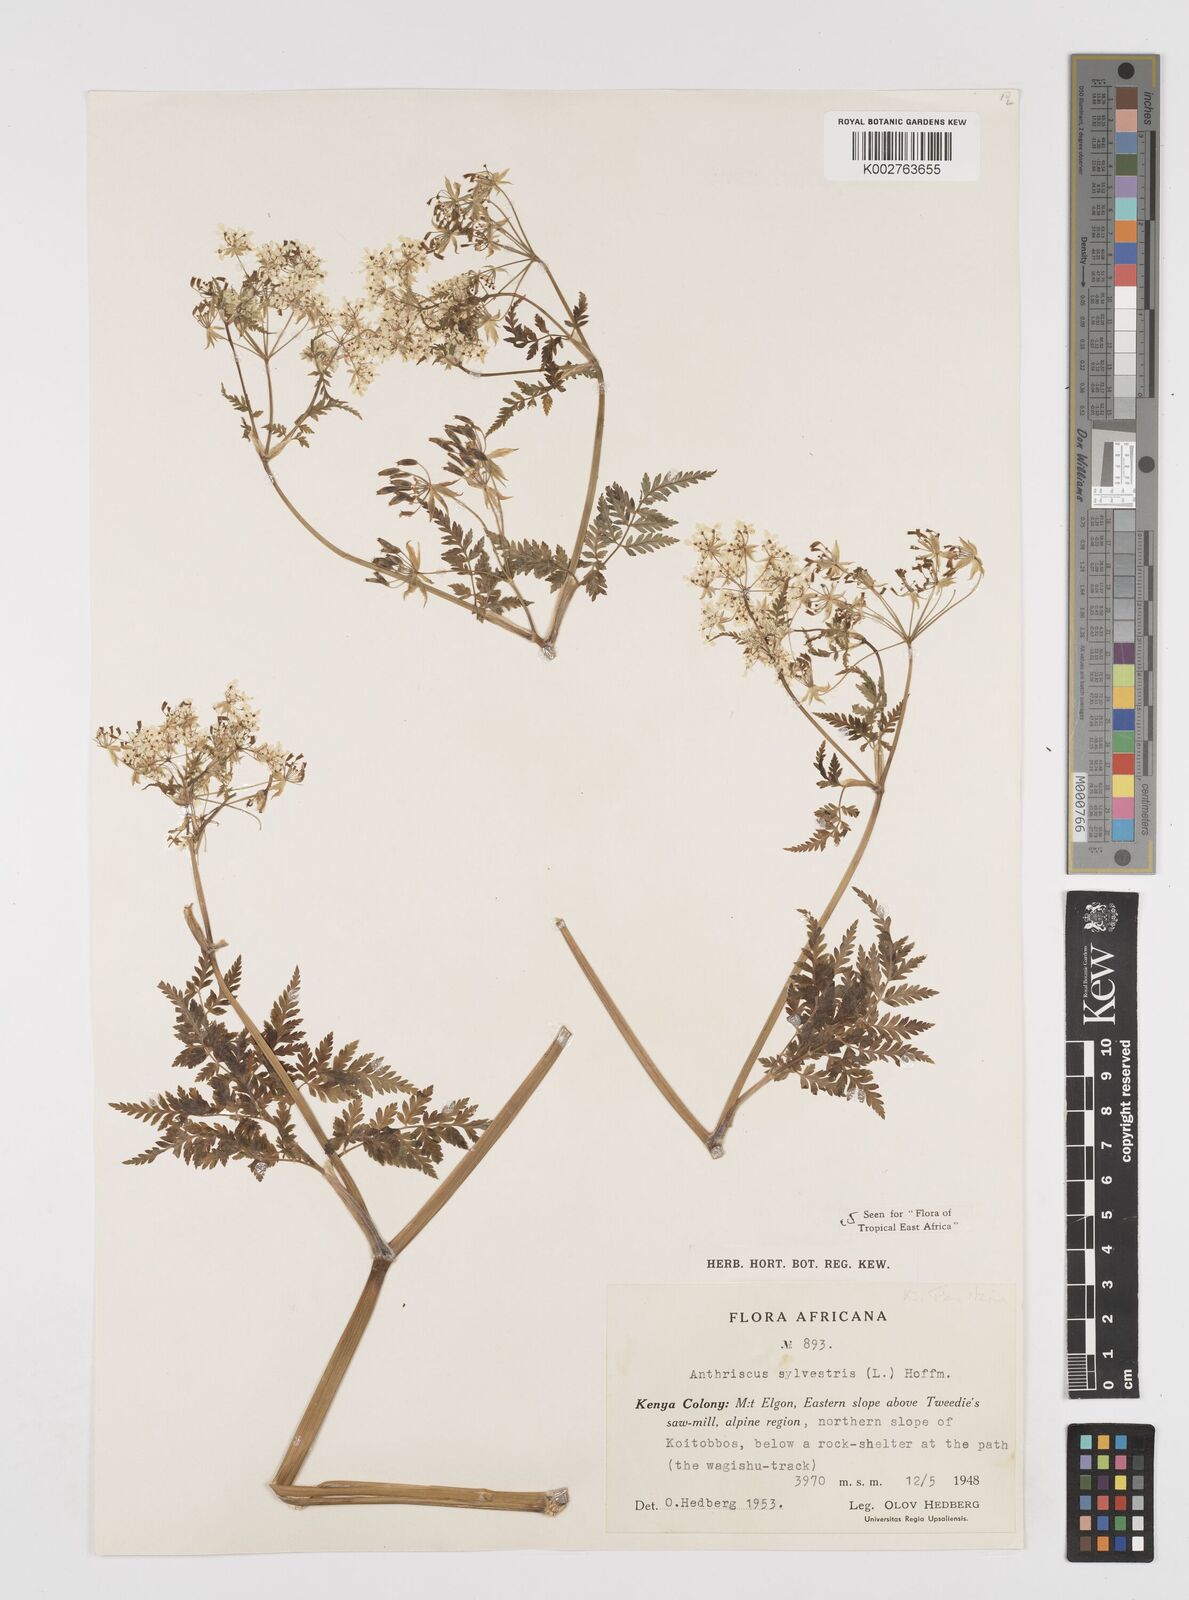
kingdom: Plantae
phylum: Tracheophyta
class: Magnoliopsida
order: Apiales
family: Apiaceae
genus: Anthriscus
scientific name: Anthriscus sylvestris
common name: Cow parsley
